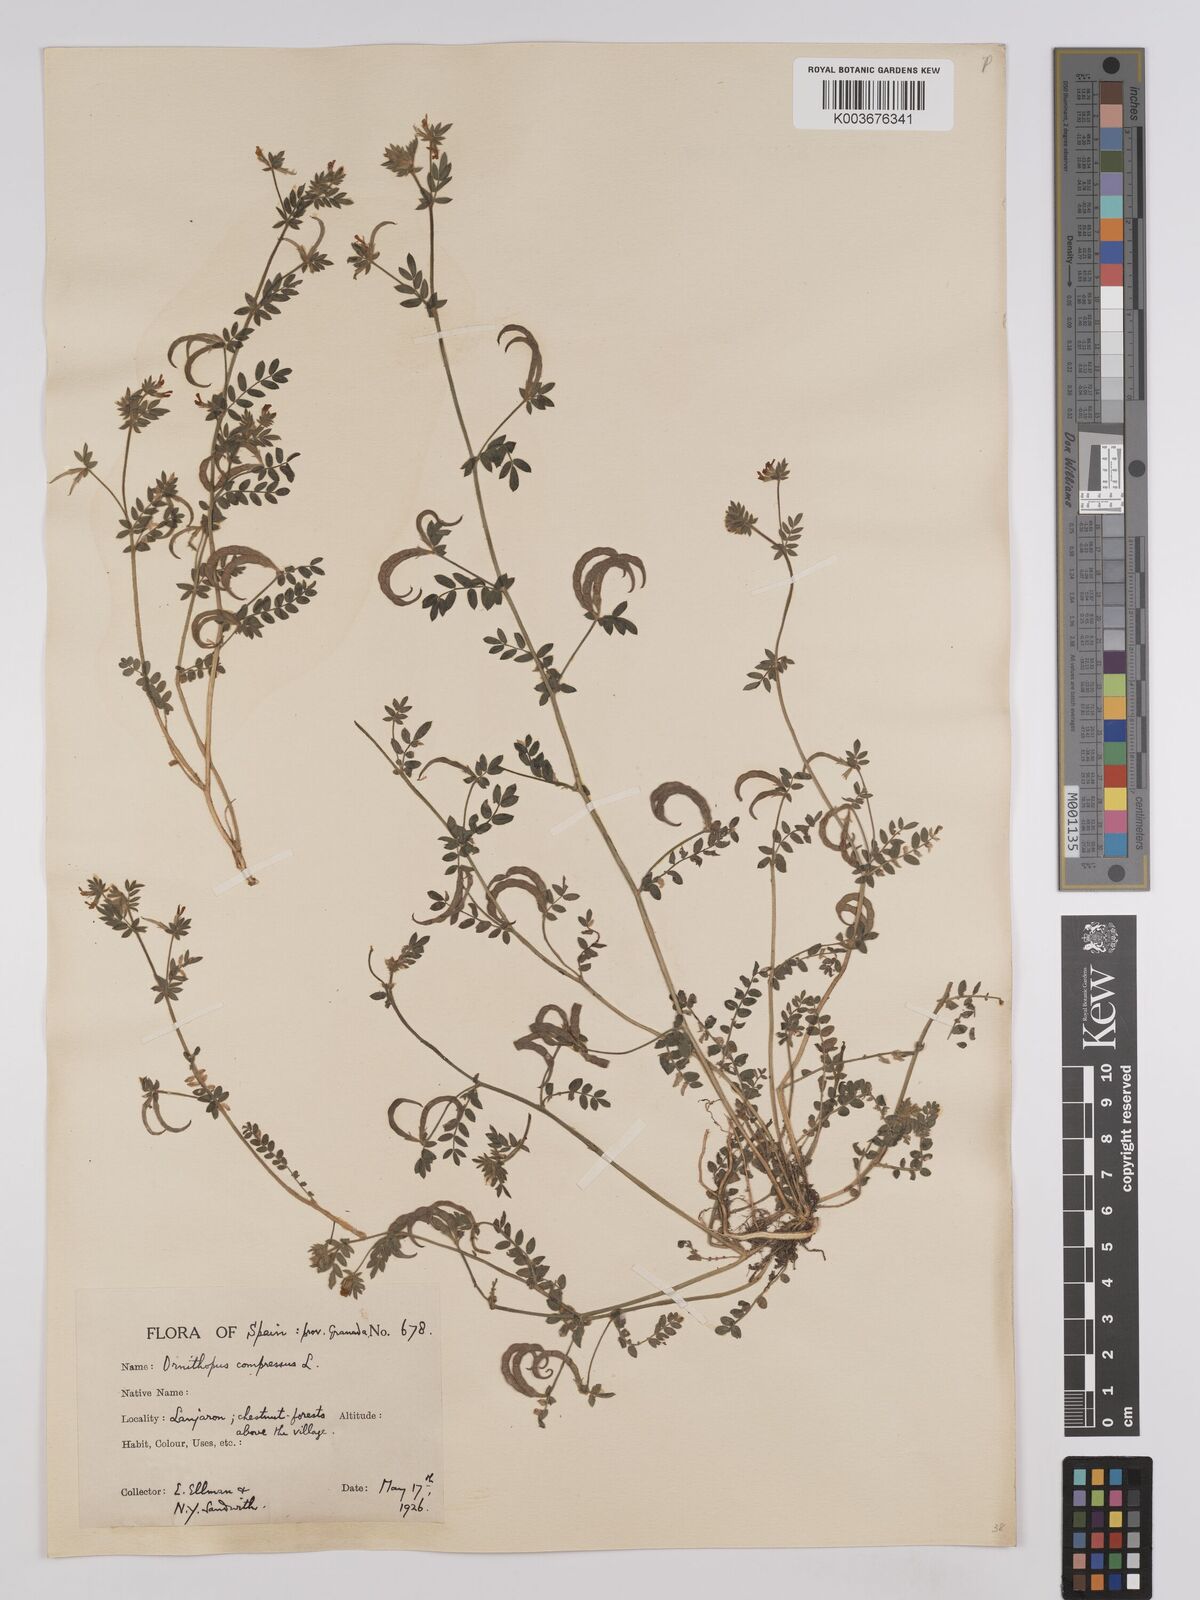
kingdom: Plantae
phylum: Tracheophyta
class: Magnoliopsida
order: Fabales
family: Fabaceae
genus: Hosackia
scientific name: Hosackia
